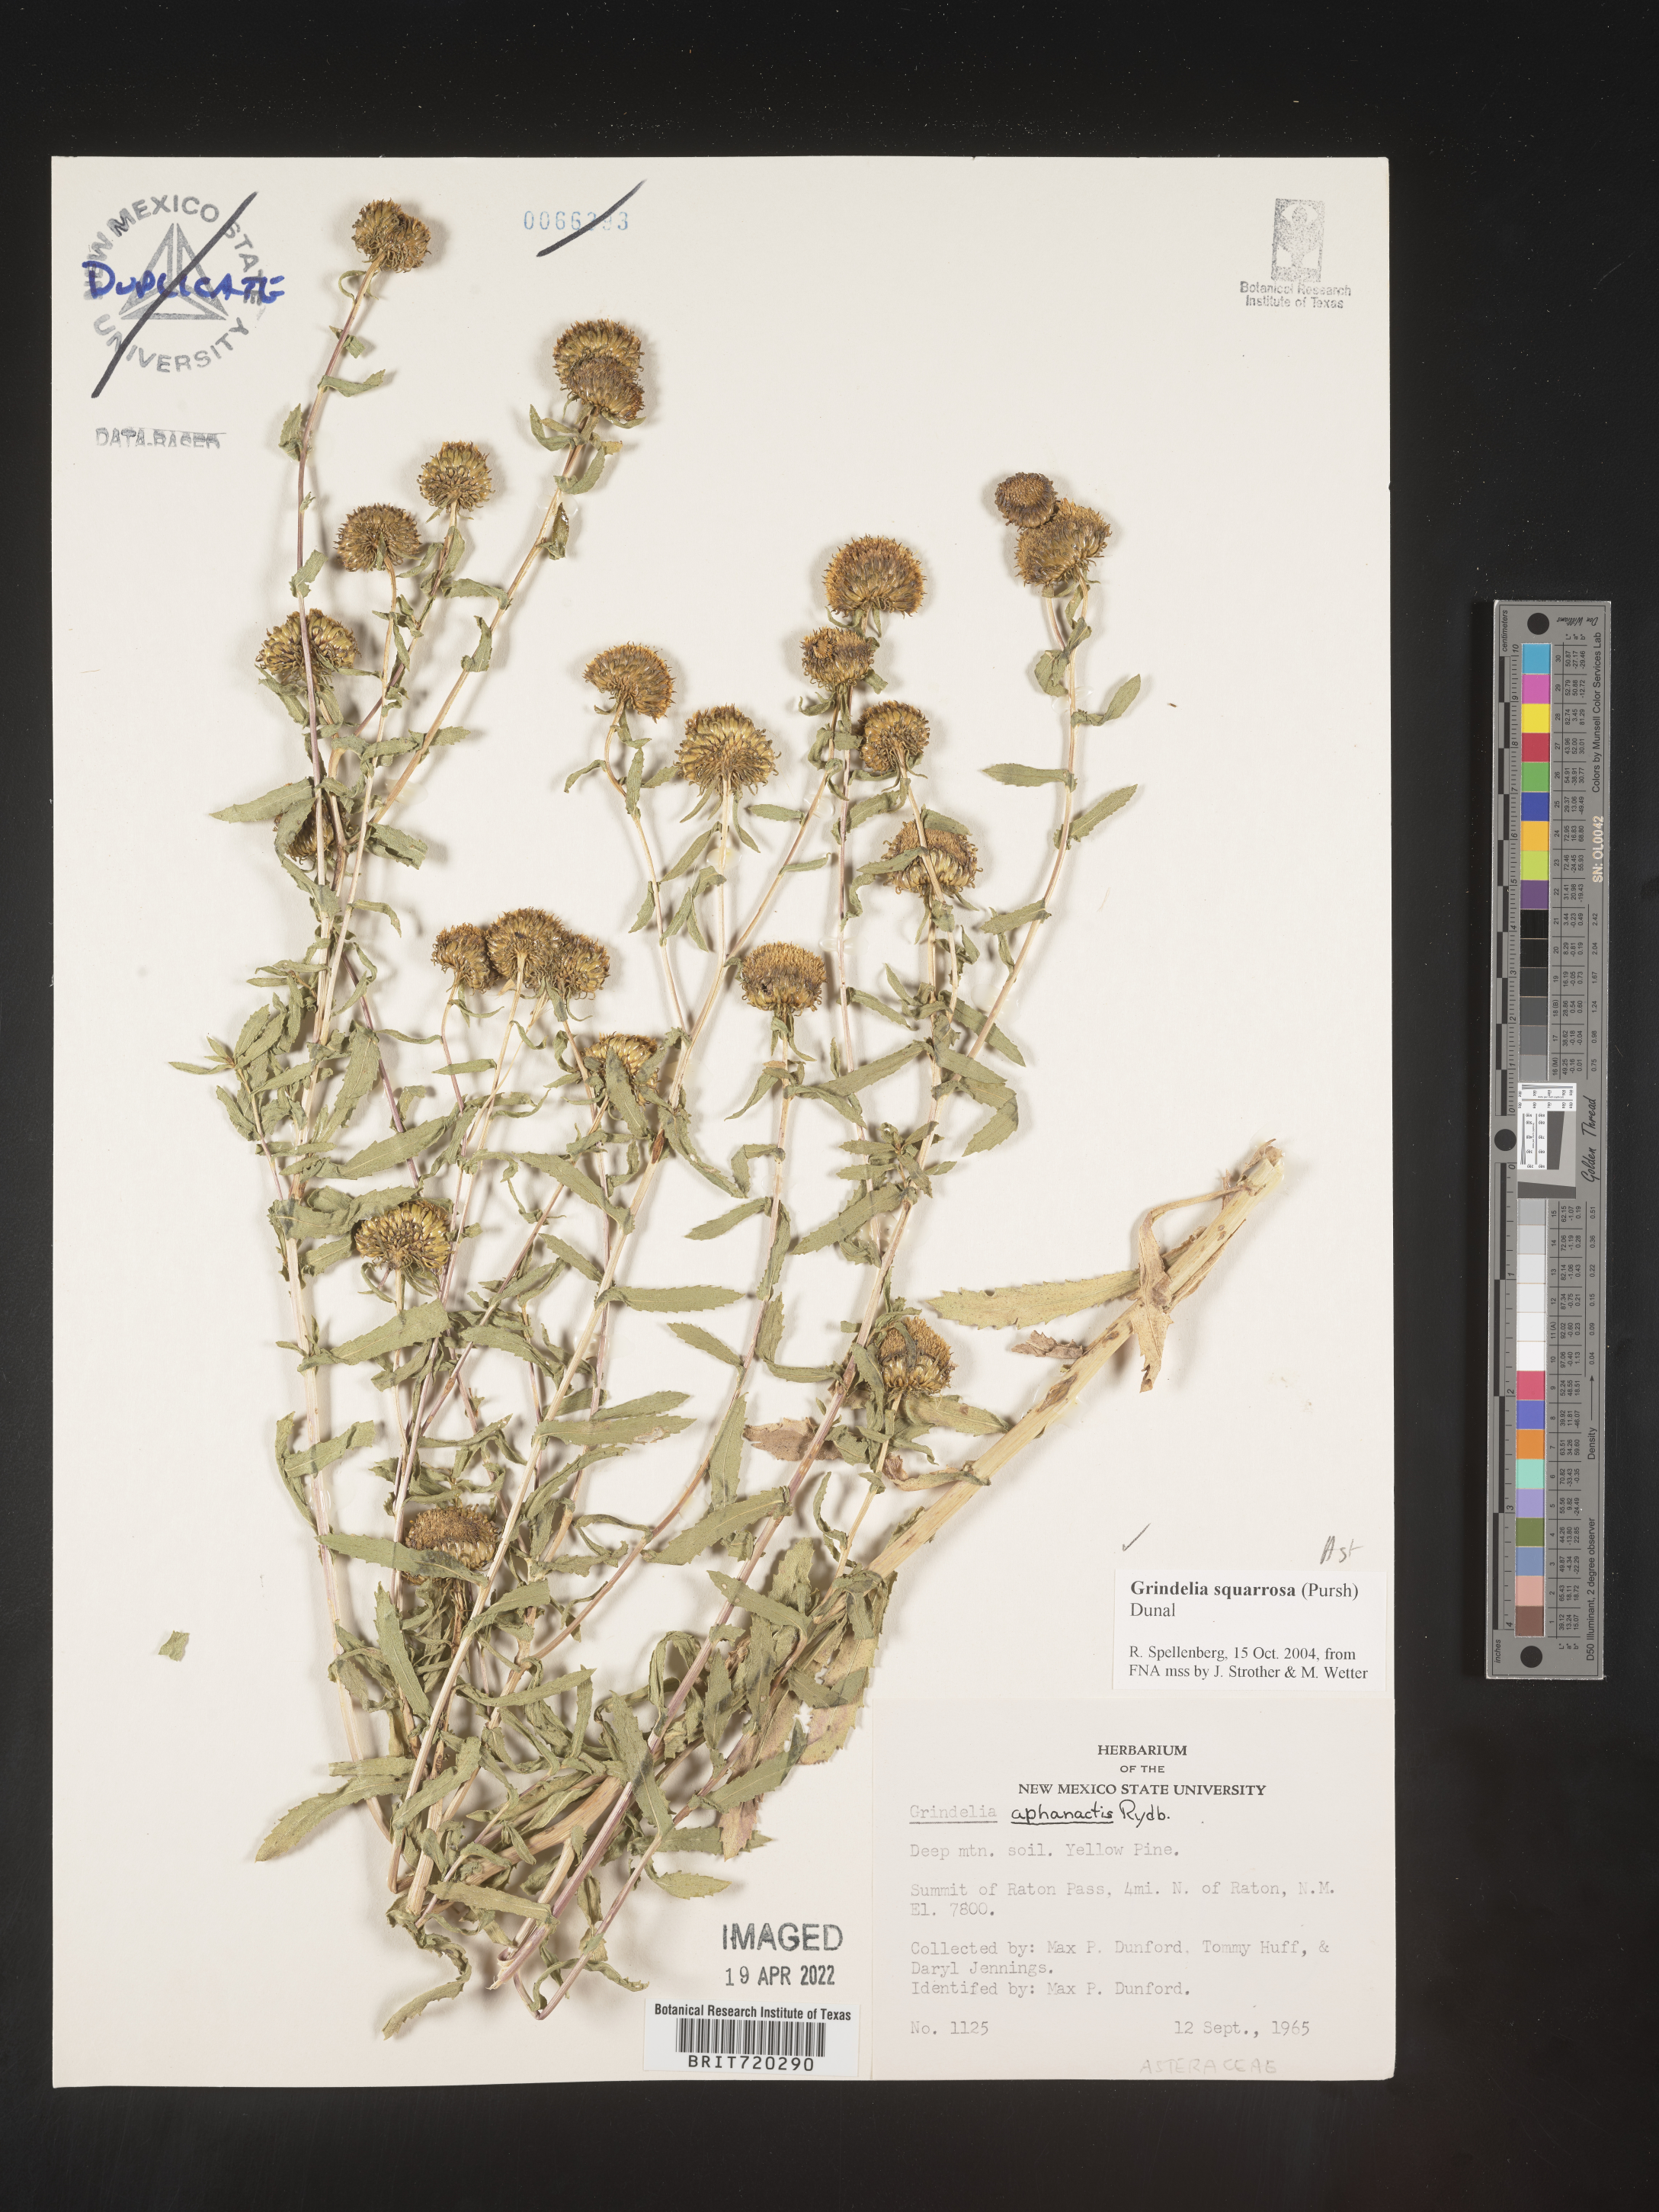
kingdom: Plantae
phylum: Tracheophyta
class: Magnoliopsida
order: Asterales
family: Asteraceae
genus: Grindelia
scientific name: Grindelia nuda
